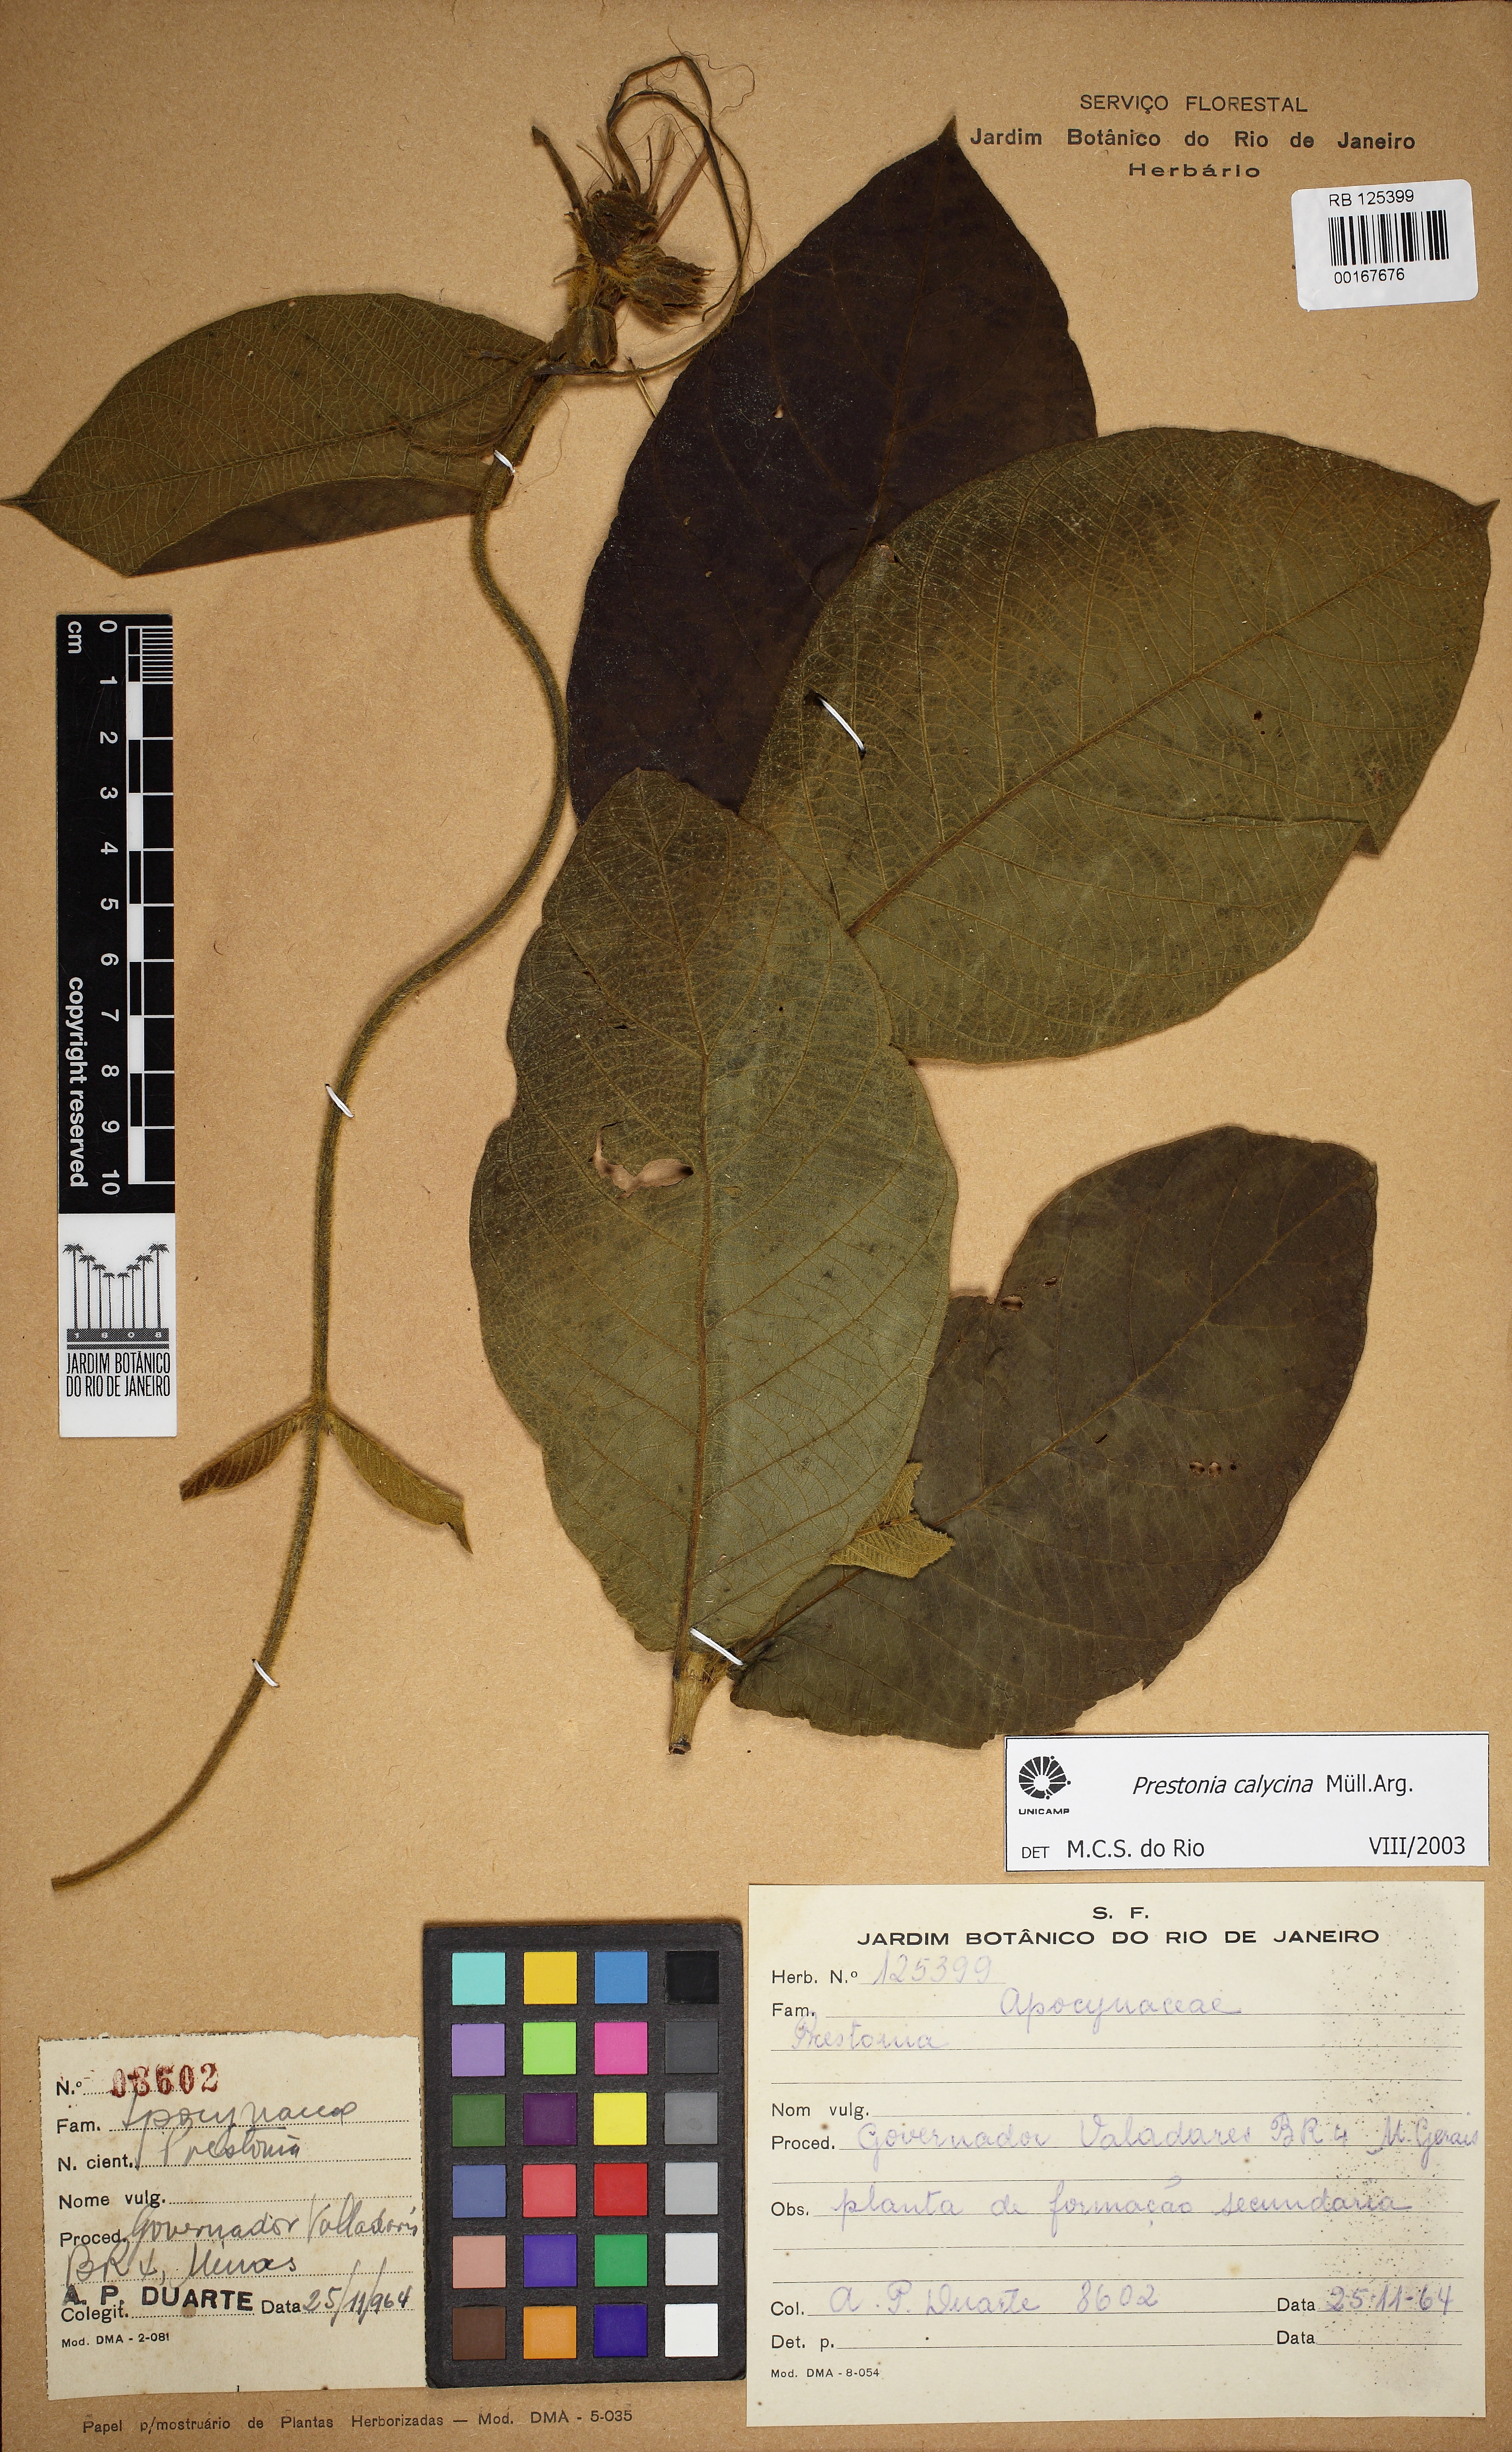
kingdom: Plantae
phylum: Tracheophyta
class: Magnoliopsida
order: Gentianales
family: Apocynaceae
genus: Prestonia
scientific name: Prestonia calycina
